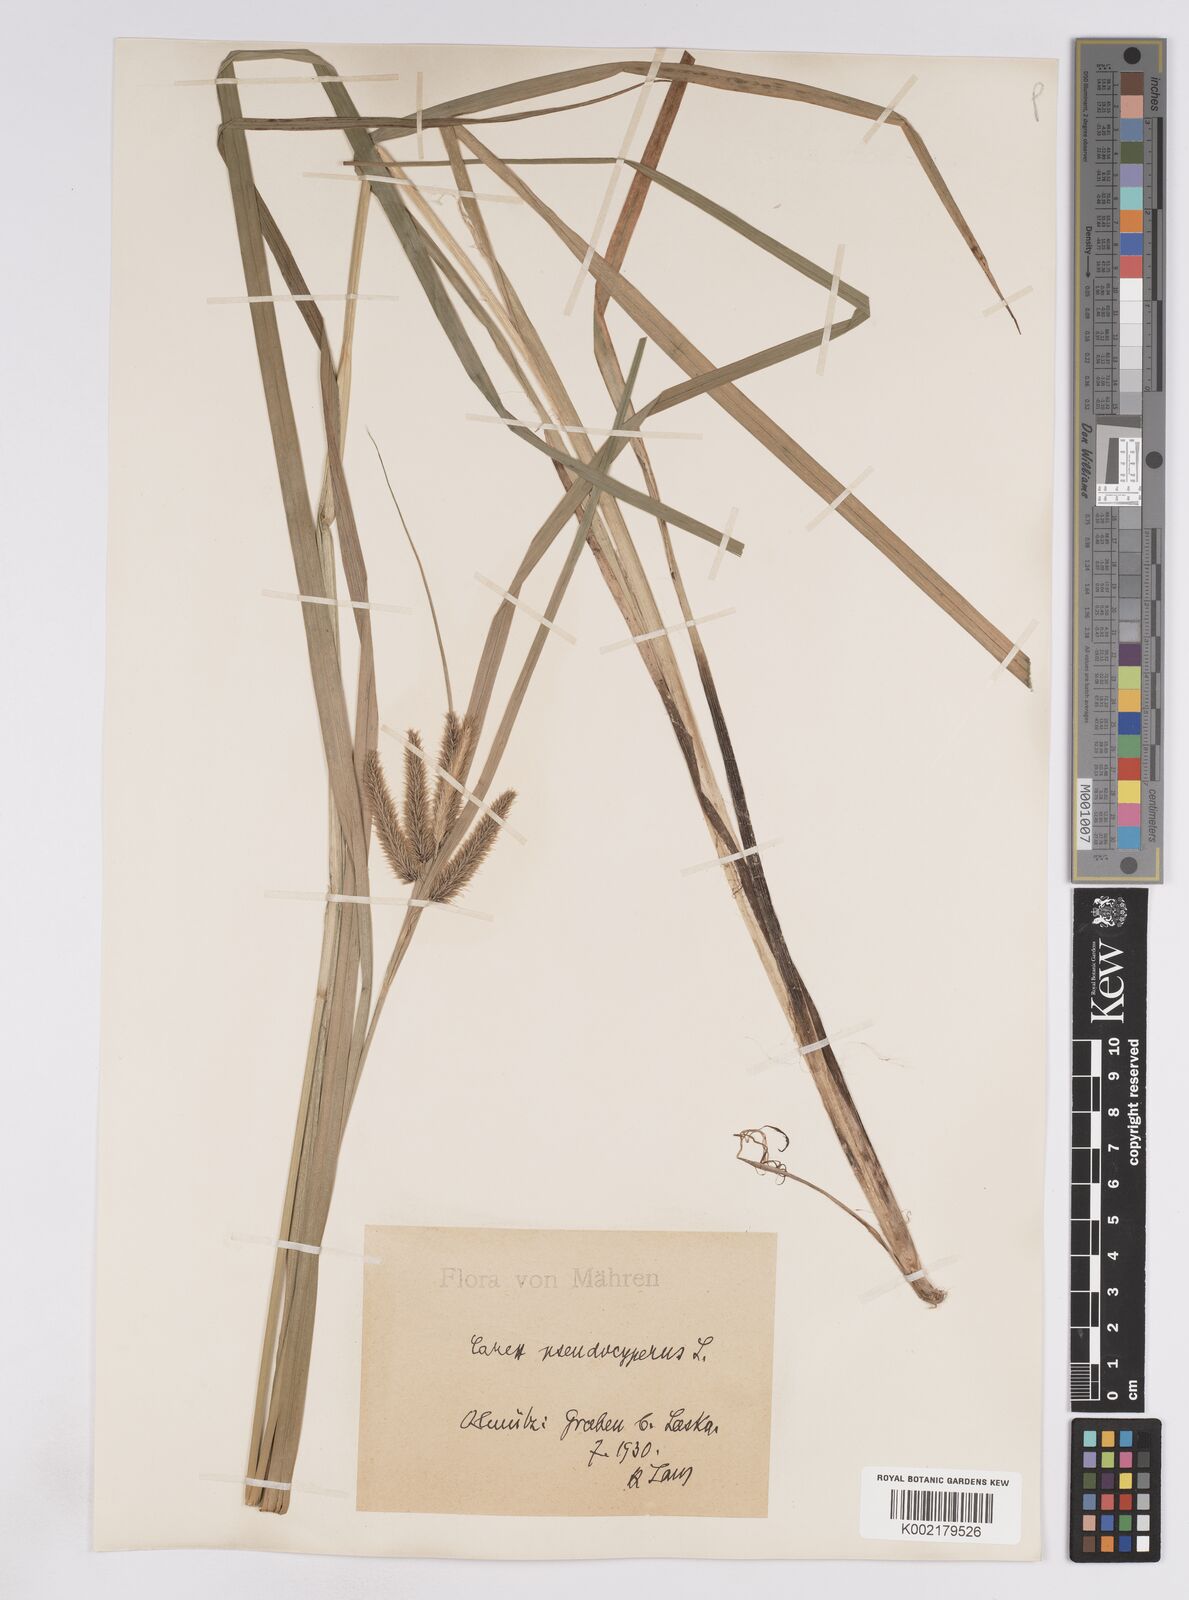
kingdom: Plantae
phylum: Tracheophyta
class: Liliopsida
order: Poales
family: Cyperaceae
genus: Carex
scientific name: Carex pseudocyperus
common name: Cyperus sedge
